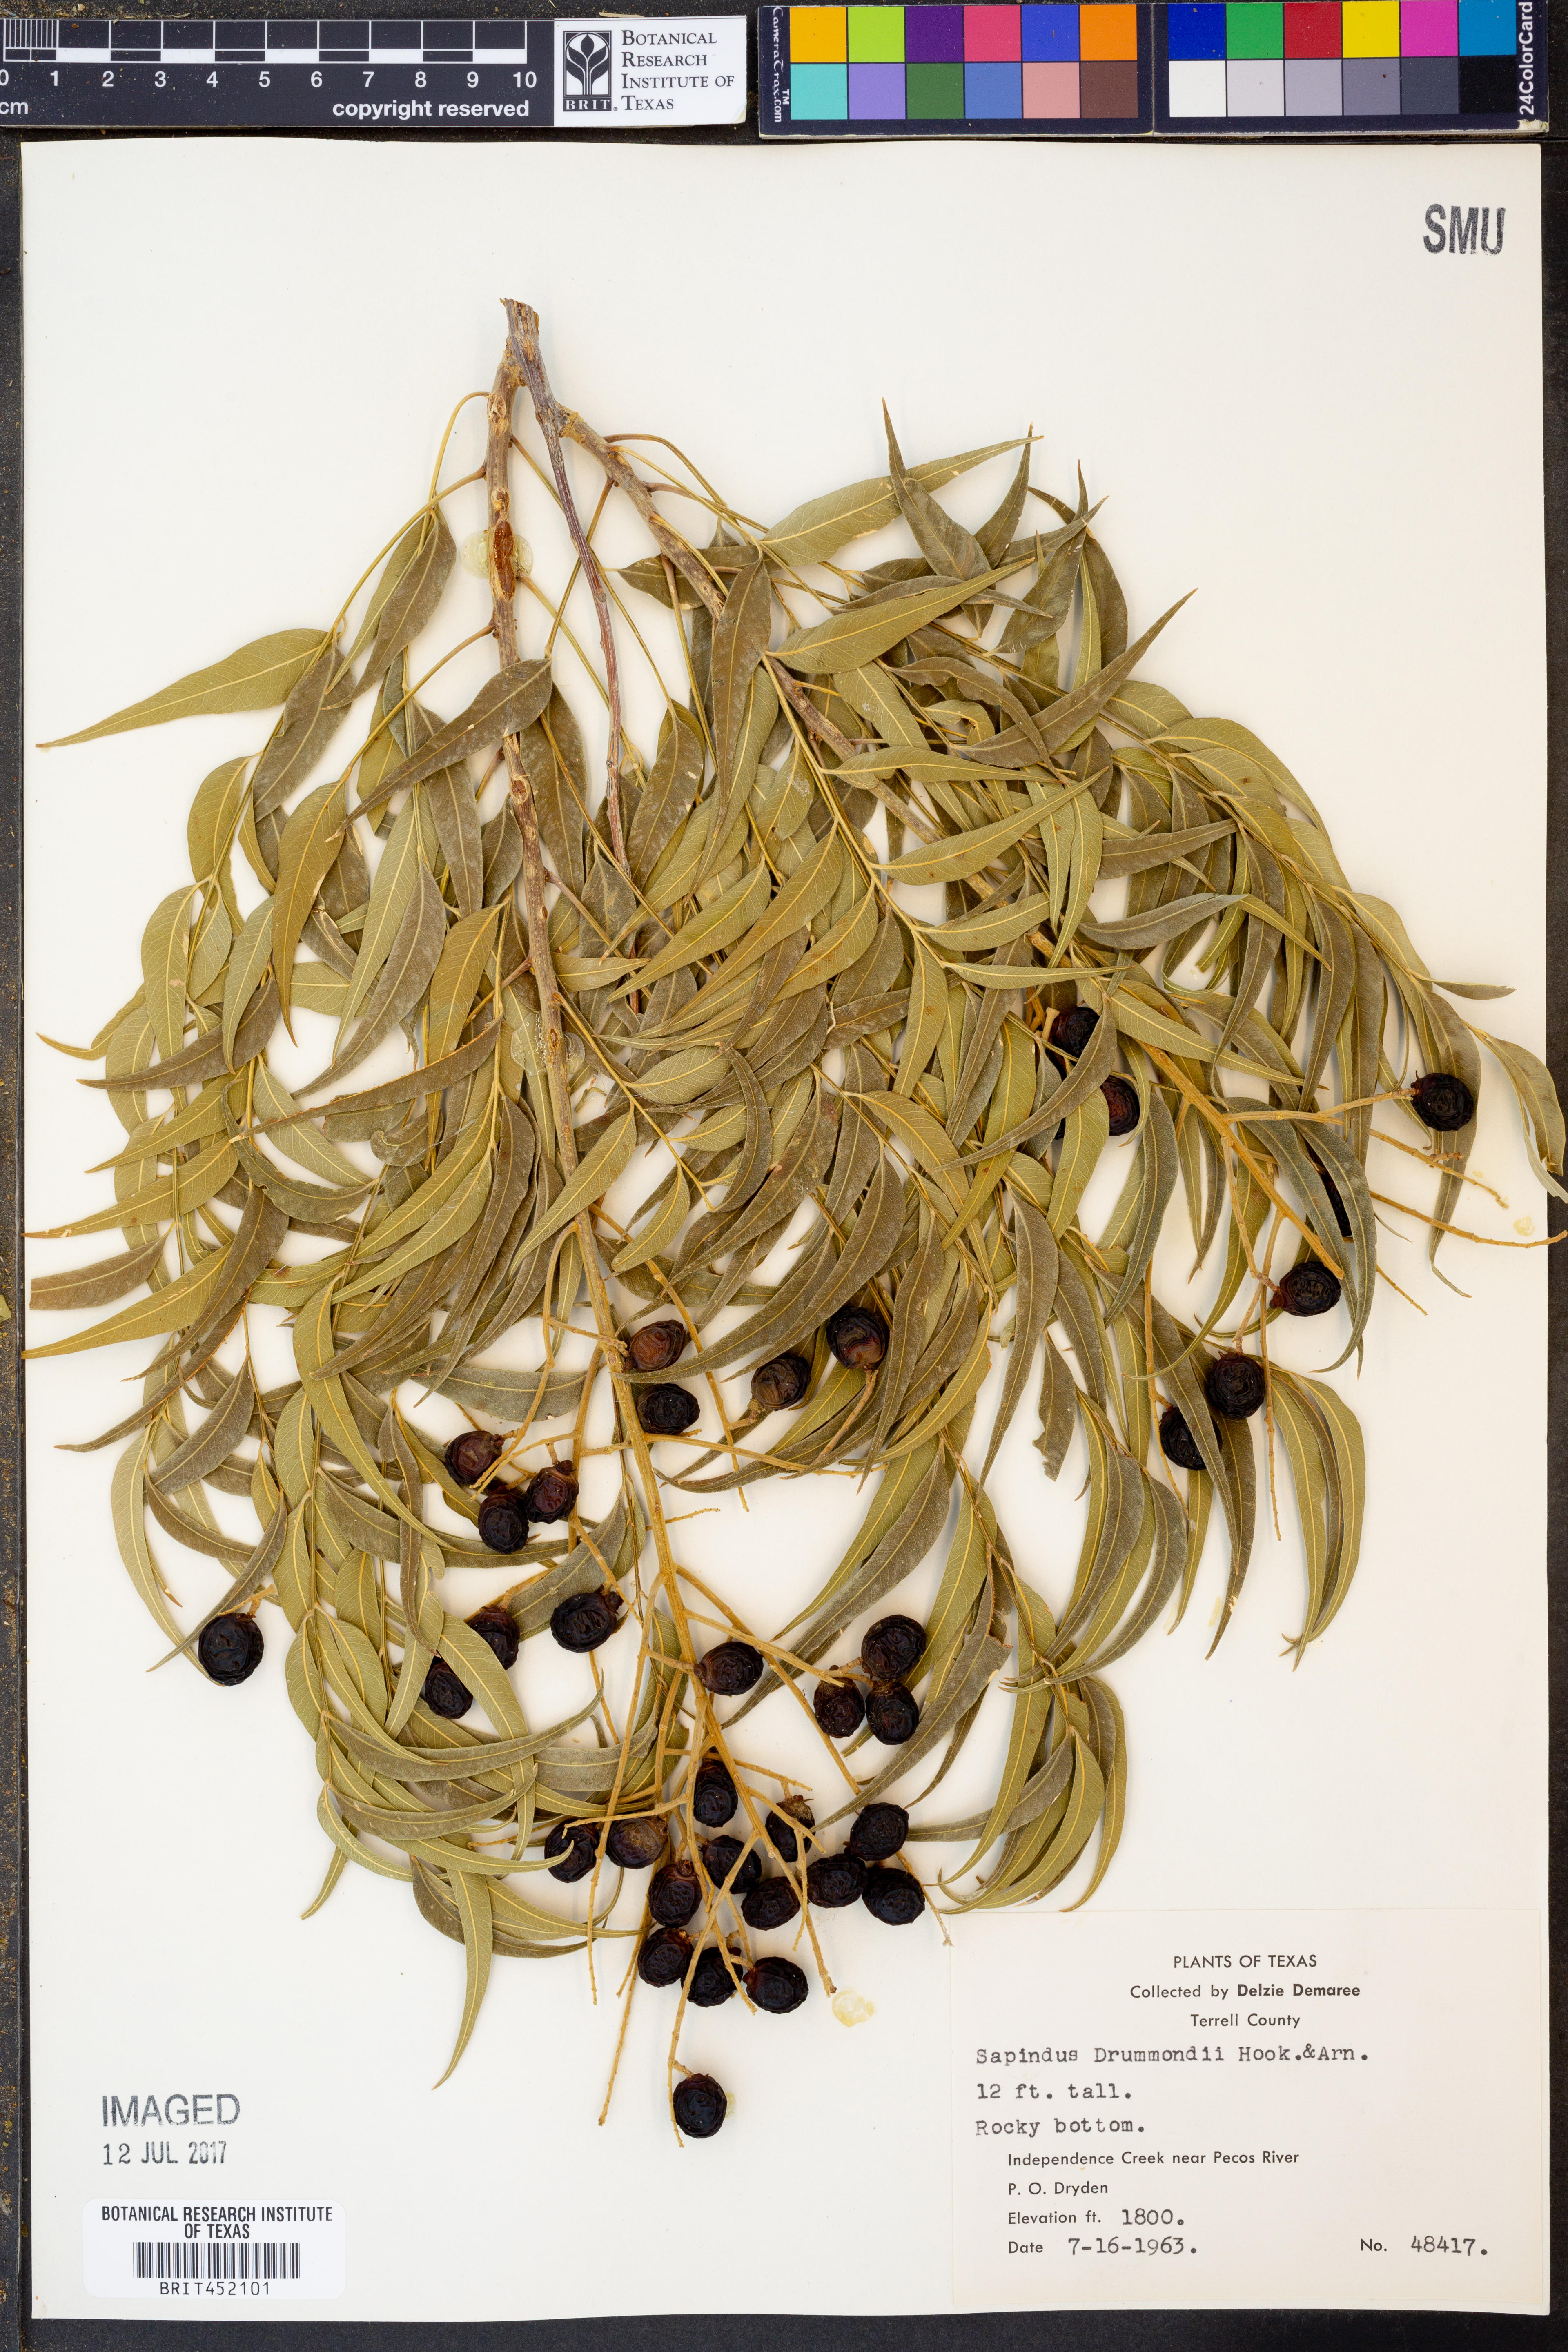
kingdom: Plantae
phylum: Tracheophyta
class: Magnoliopsida
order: Sapindales
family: Sapindaceae
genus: Sapindus
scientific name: Sapindus drummondii
